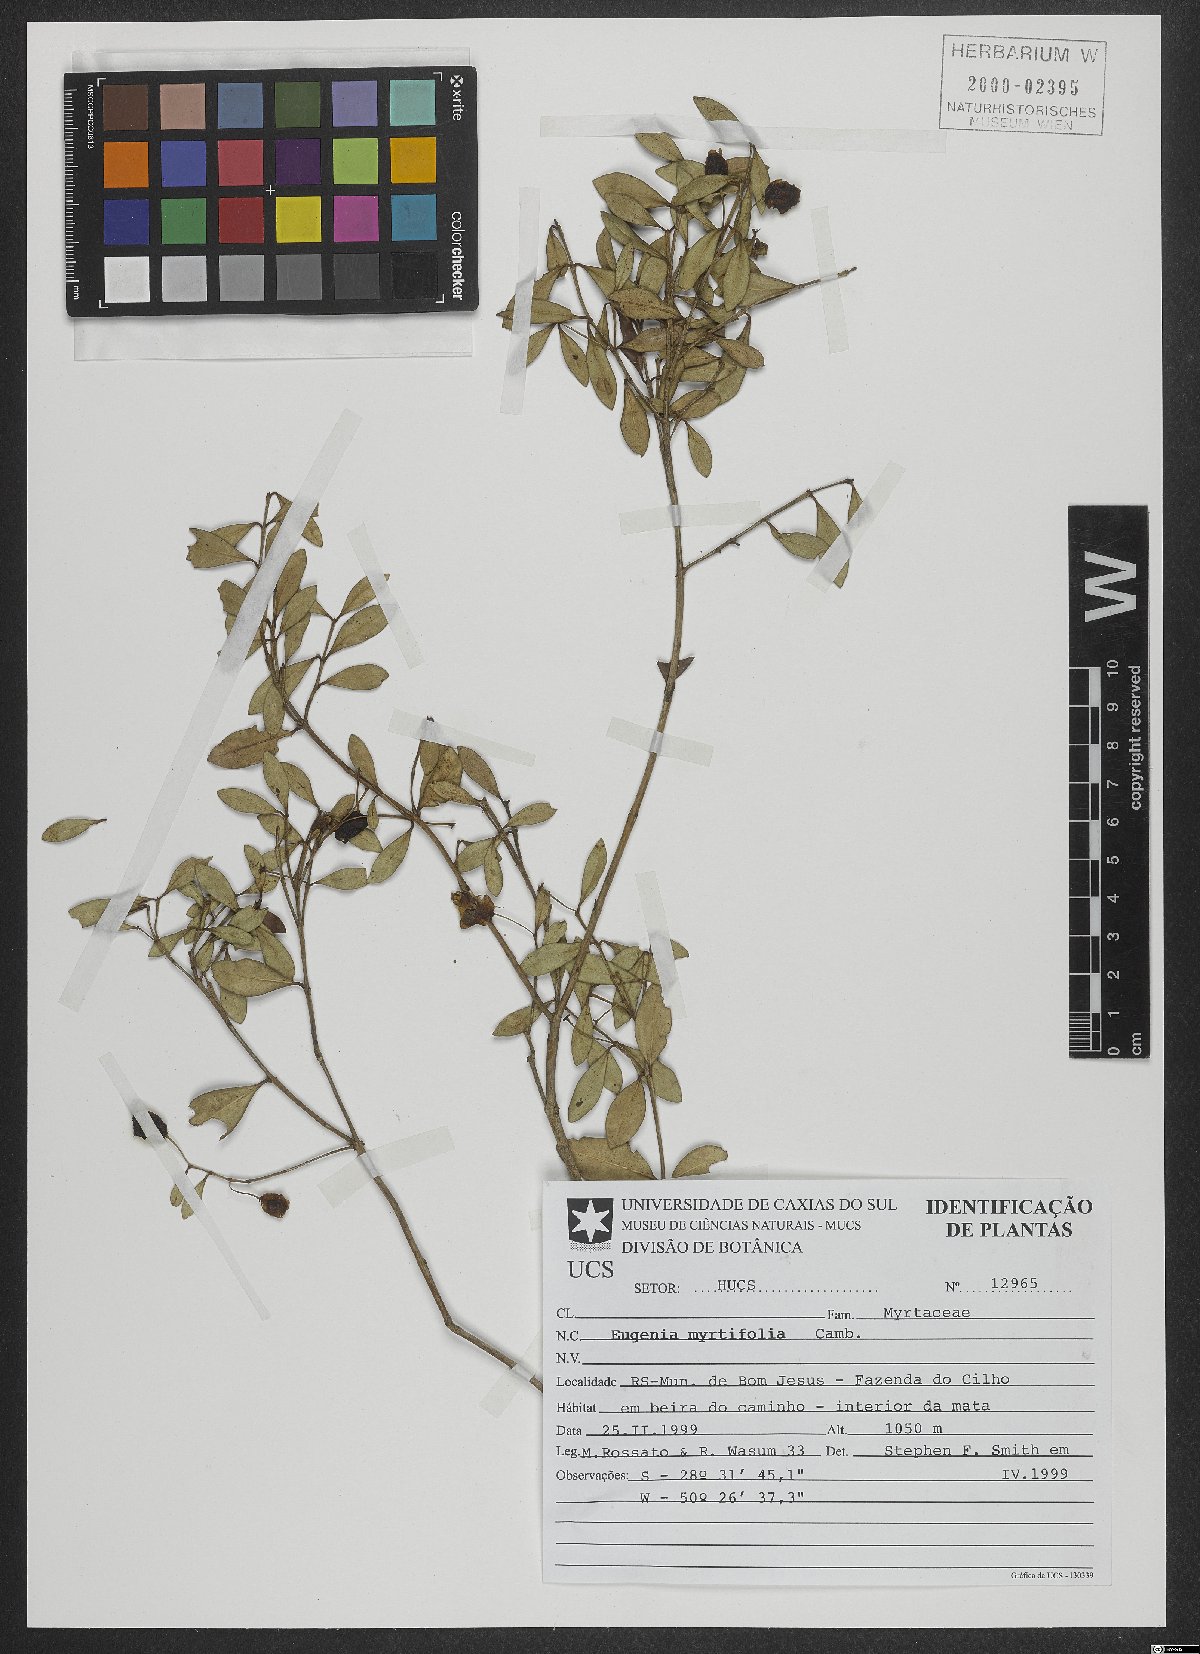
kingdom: Plantae
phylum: Tracheophyta
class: Magnoliopsida
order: Myrtales
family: Myrtaceae
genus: Eugenia
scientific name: Eugenia neomyrtifolia
